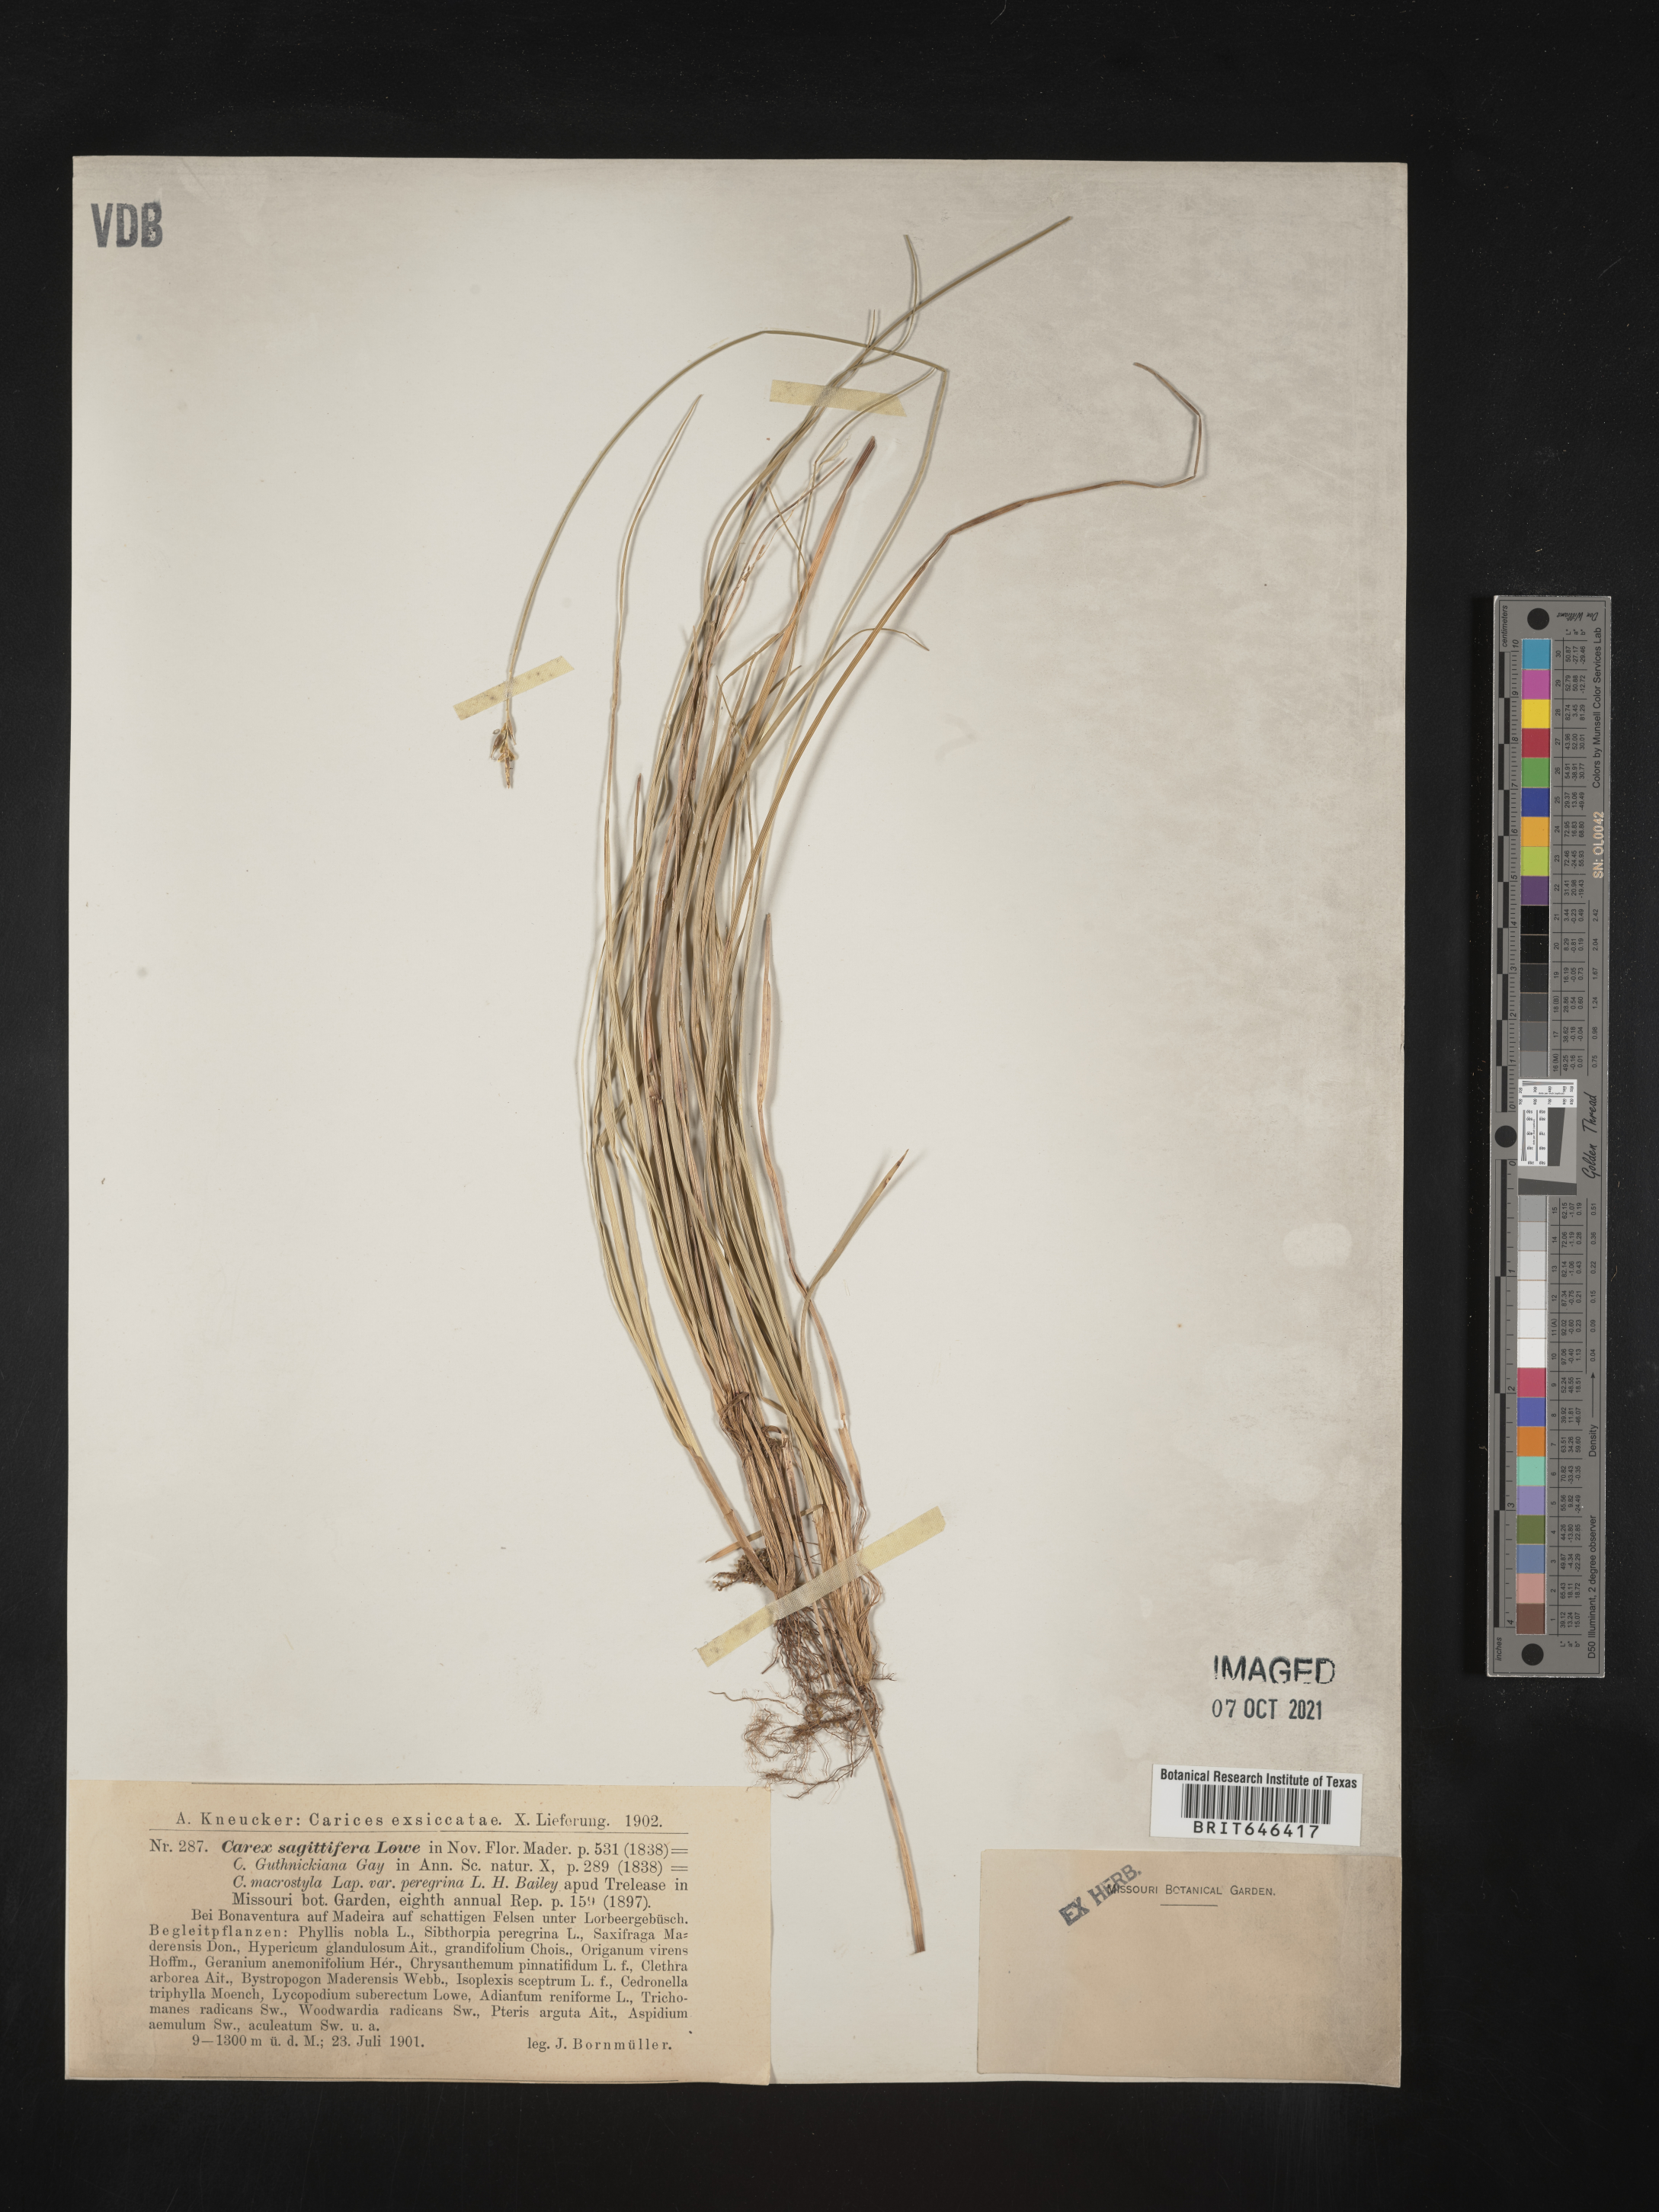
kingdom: Plantae
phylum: Tracheophyta
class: Liliopsida
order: Poales
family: Cyperaceae
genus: Carex
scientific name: Carex peregrina
